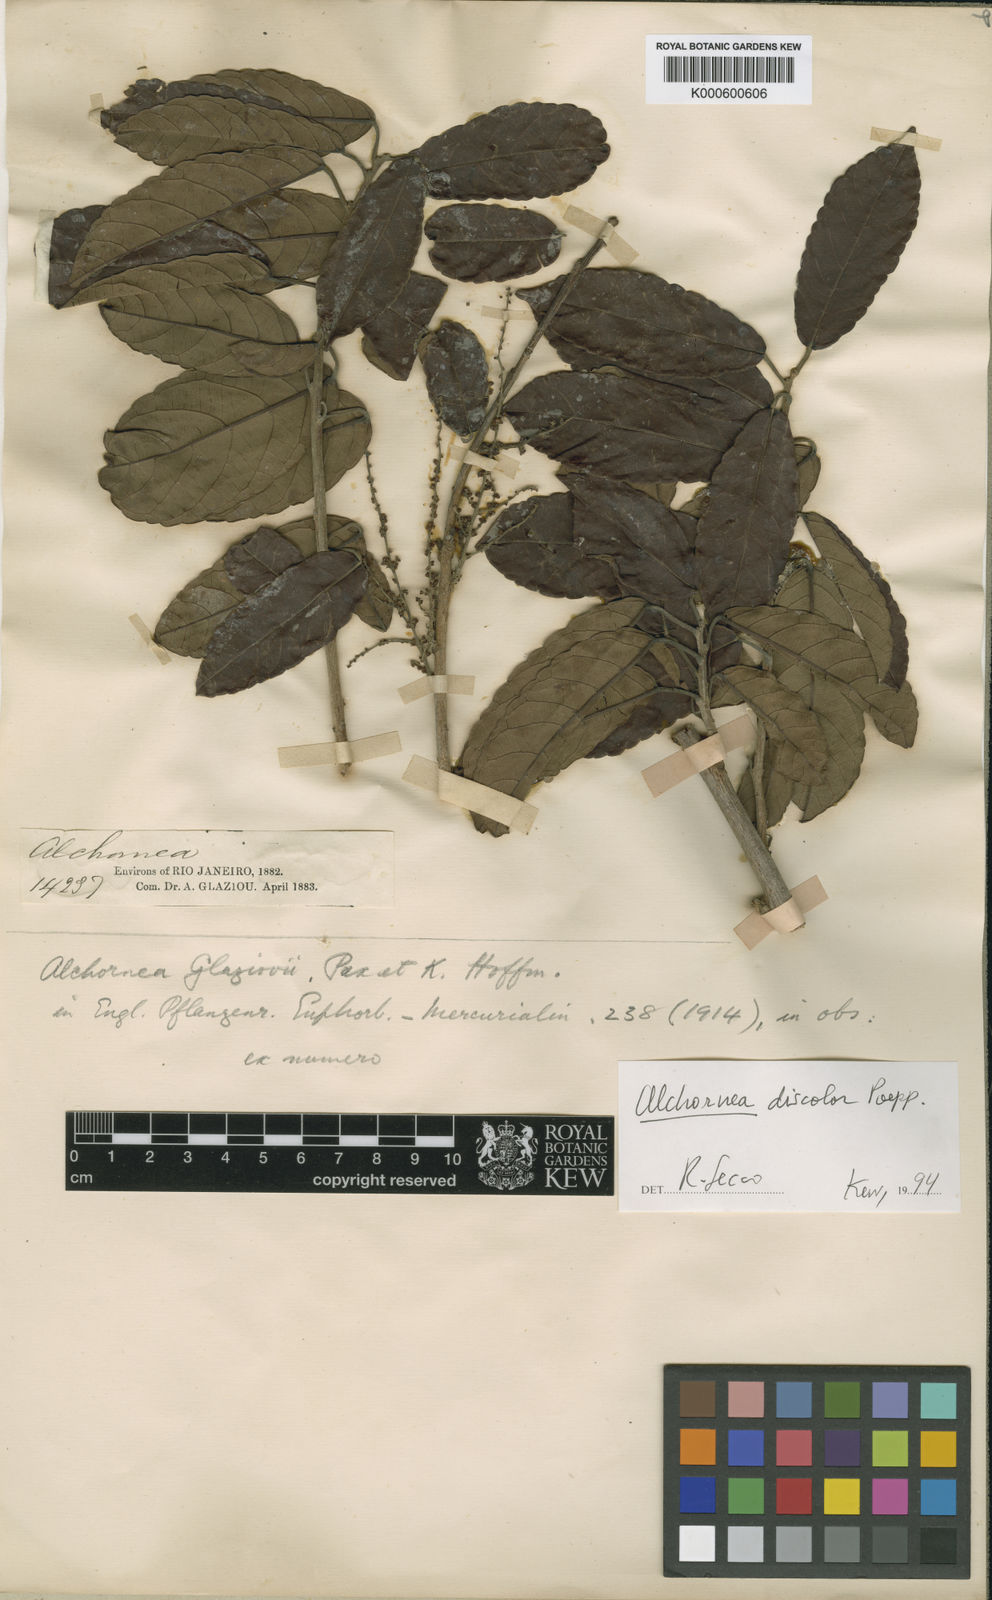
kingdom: Plantae
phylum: Tracheophyta
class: Magnoliopsida
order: Malpighiales
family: Euphorbiaceae
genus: Alchornea
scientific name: Alchornea discolor
